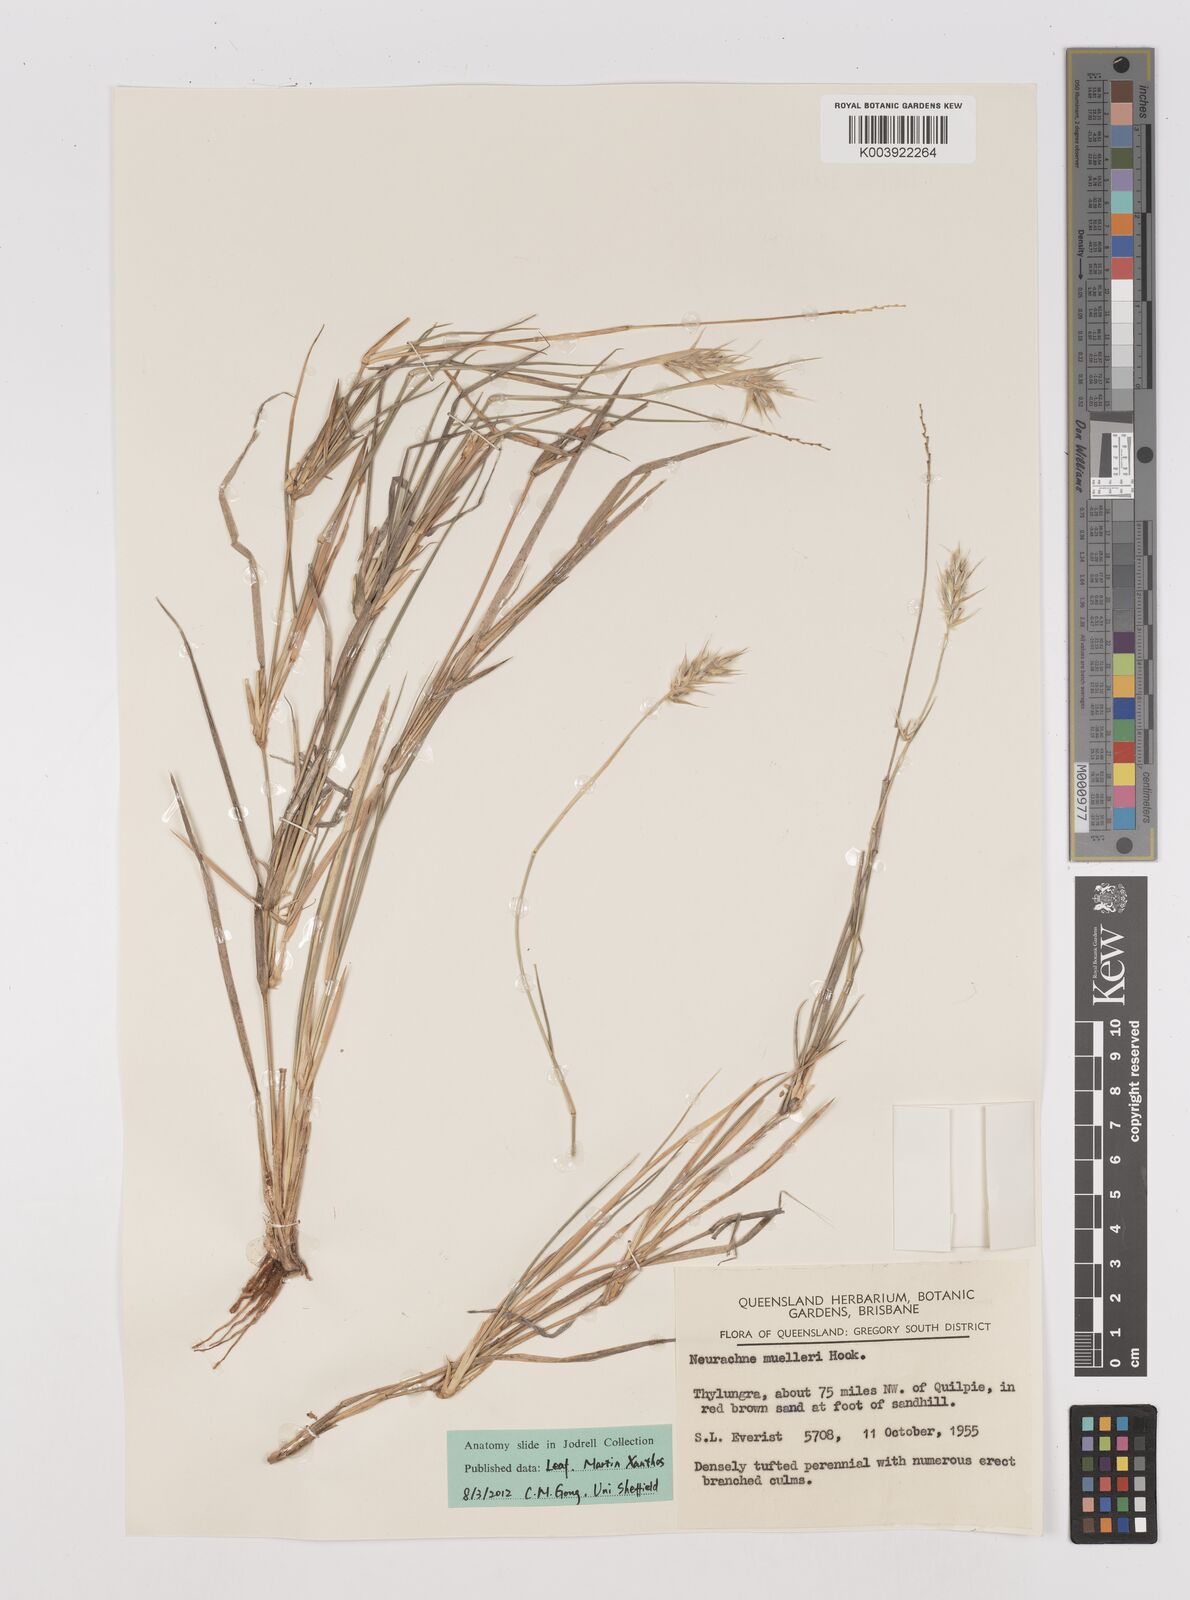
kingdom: Plantae
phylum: Tracheophyta
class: Liliopsida
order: Poales
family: Poaceae
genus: Neurachne
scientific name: Neurachne muelleri
